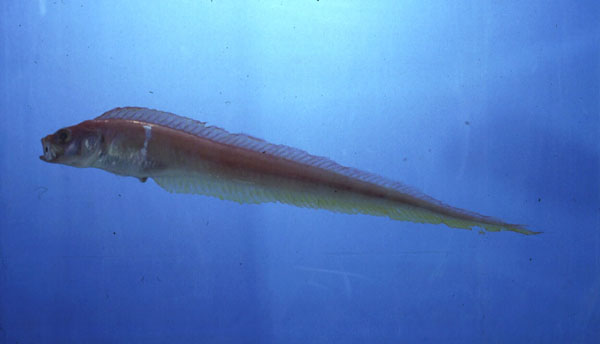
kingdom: Animalia
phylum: Chordata
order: Perciformes
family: Cepolidae
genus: Cepola
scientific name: Cepola schlegelii
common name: Red bandfish
